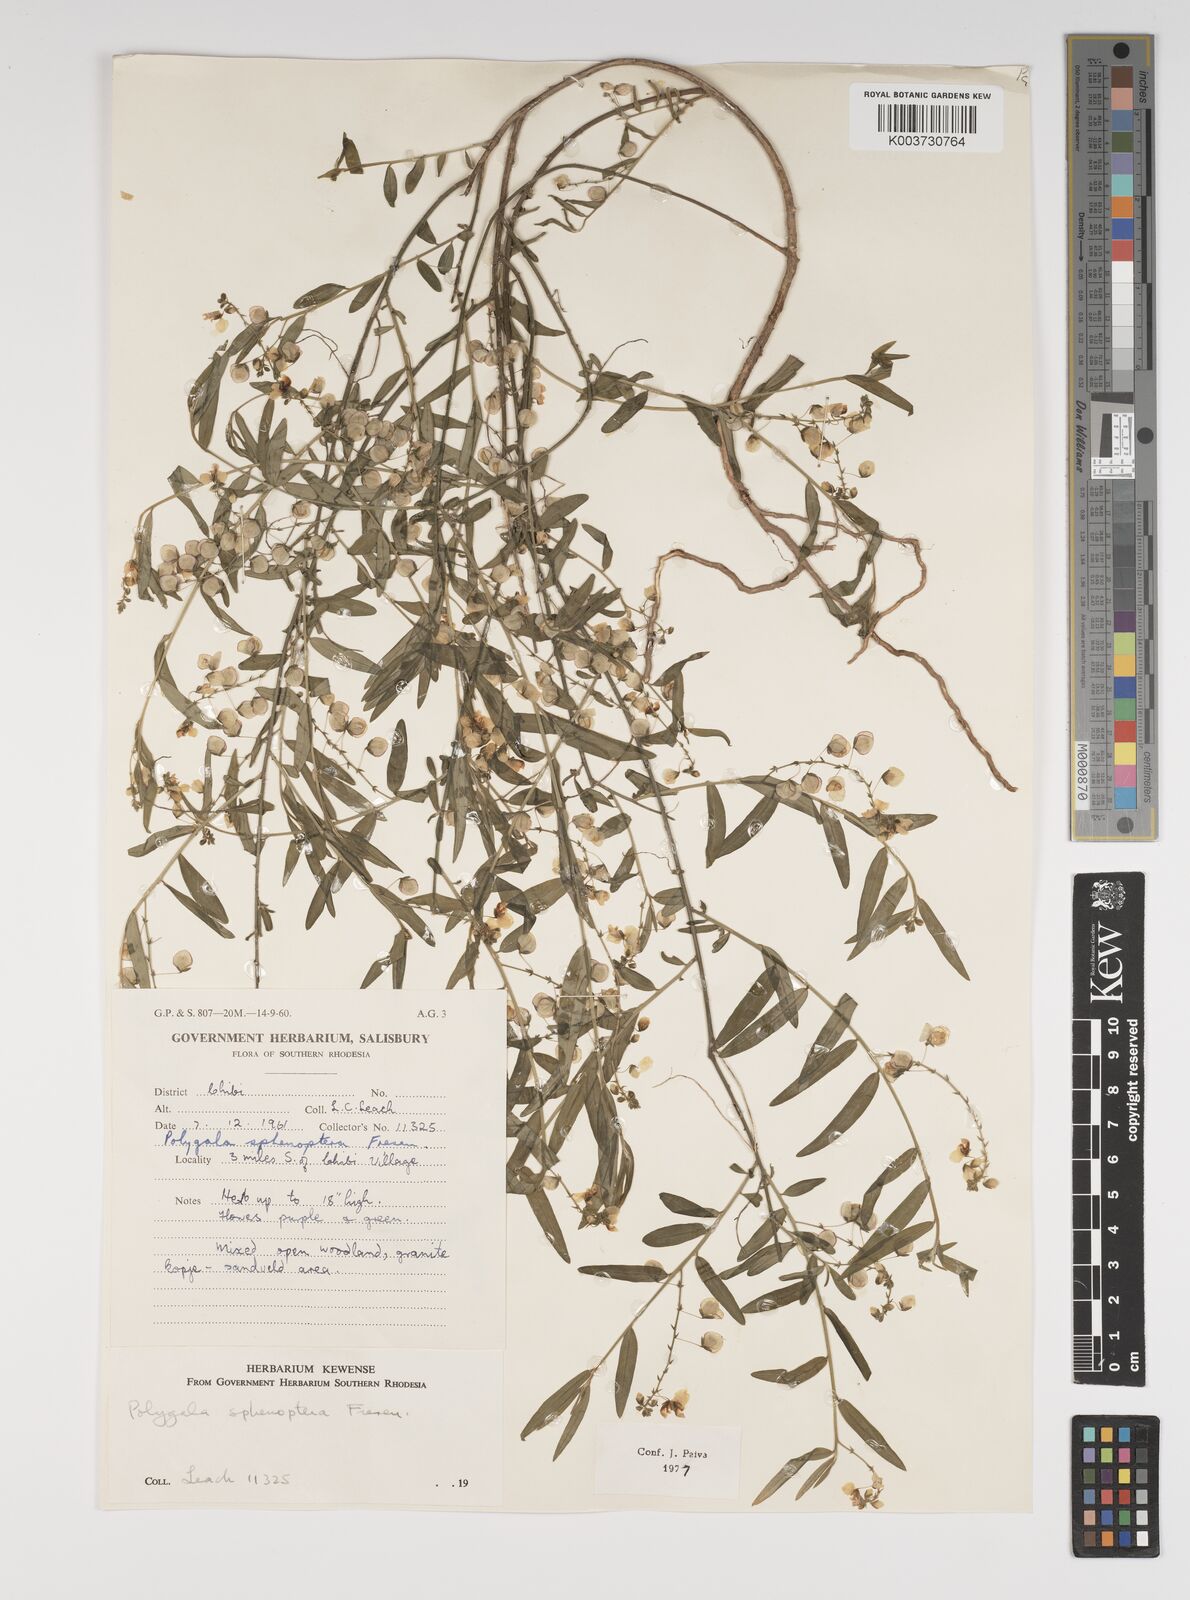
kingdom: Plantae
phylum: Tracheophyta
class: Magnoliopsida
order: Fabales
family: Polygalaceae
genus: Polygala
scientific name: Polygala sphenoptera
